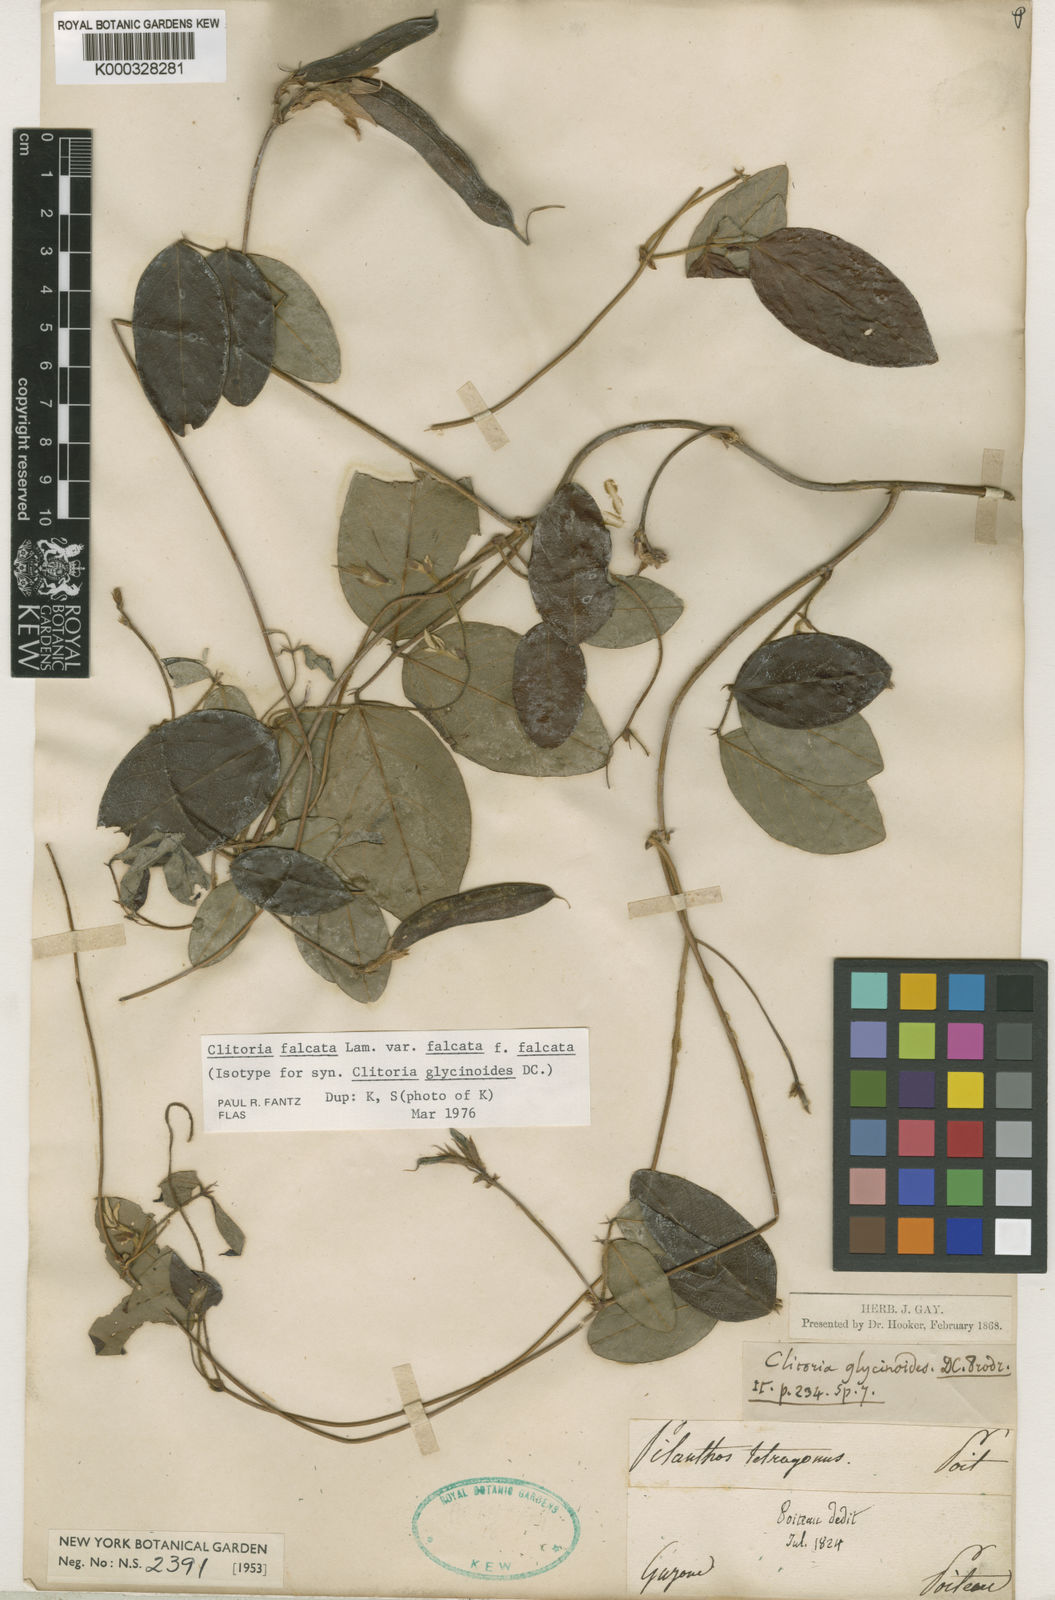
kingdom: Plantae
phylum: Tracheophyta
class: Magnoliopsida
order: Fabales
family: Fabaceae
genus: Clitoria
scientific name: Clitoria falcata
